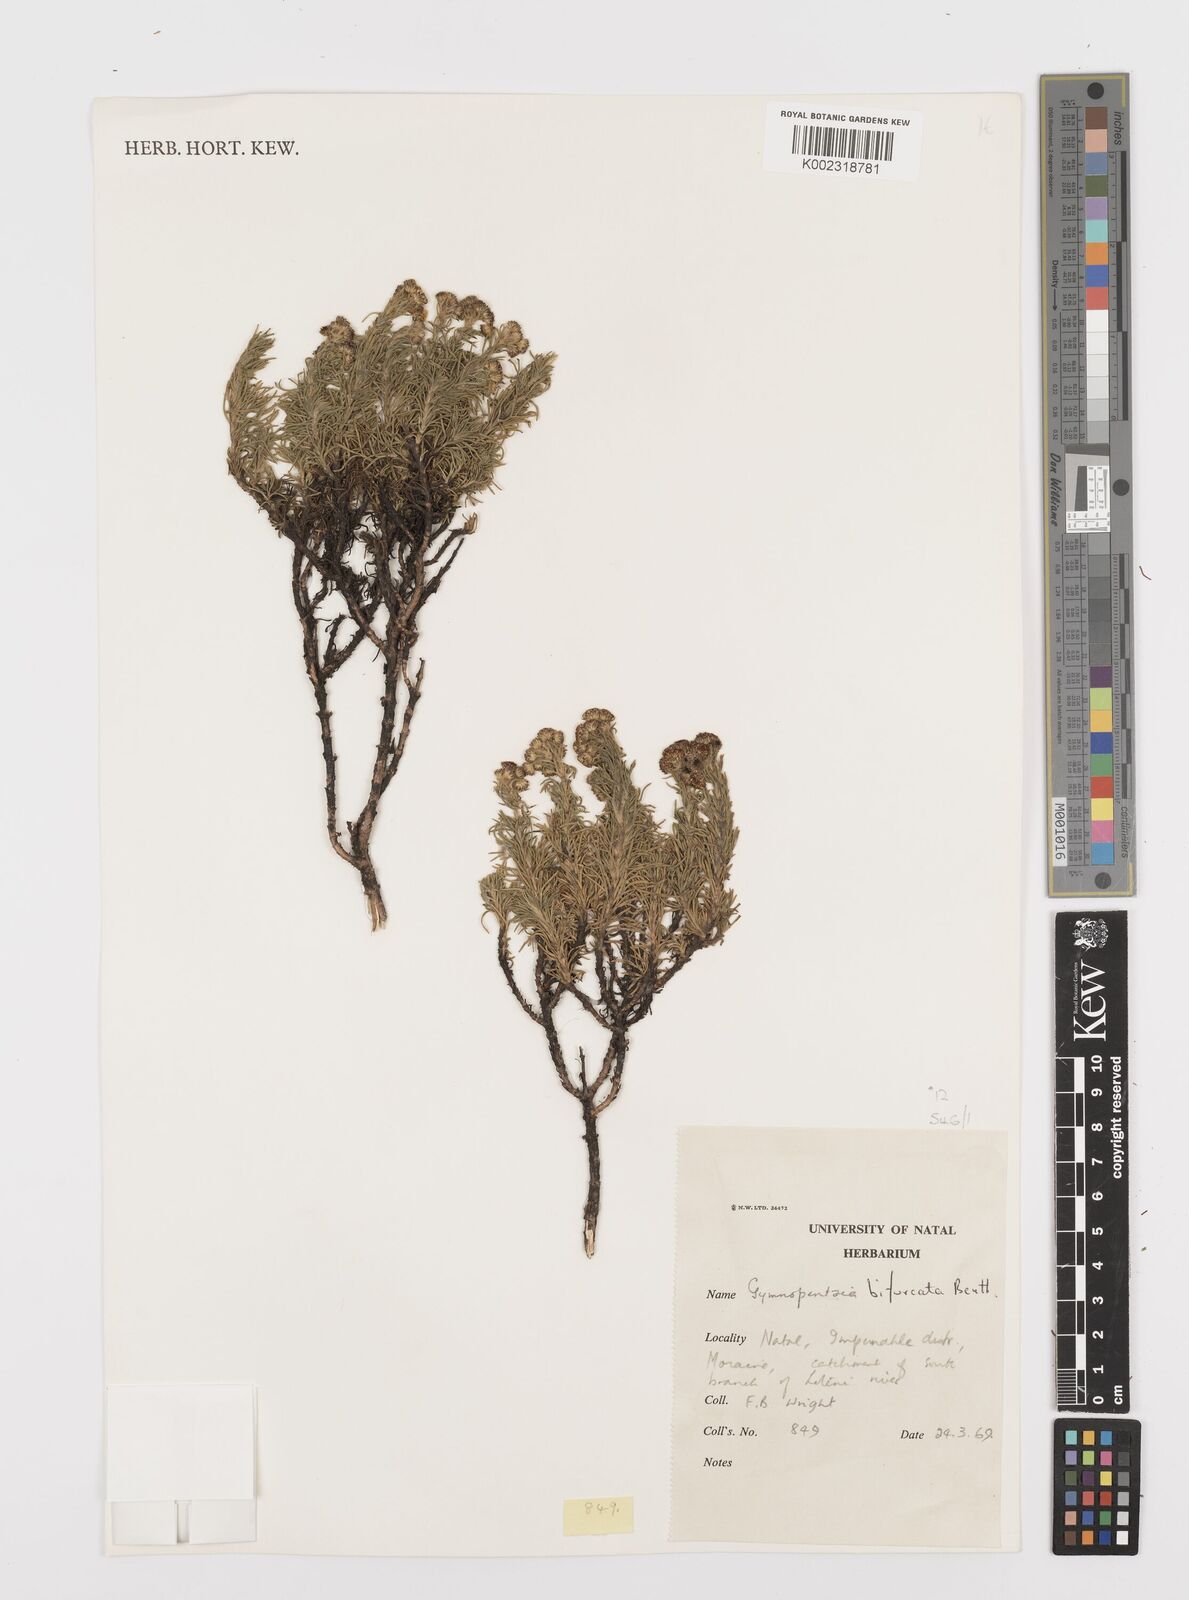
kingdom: Plantae
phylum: Tracheophyta
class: Magnoliopsida
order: Asterales
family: Asteraceae
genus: Gymnopentzia
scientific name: Gymnopentzia bifurcata
